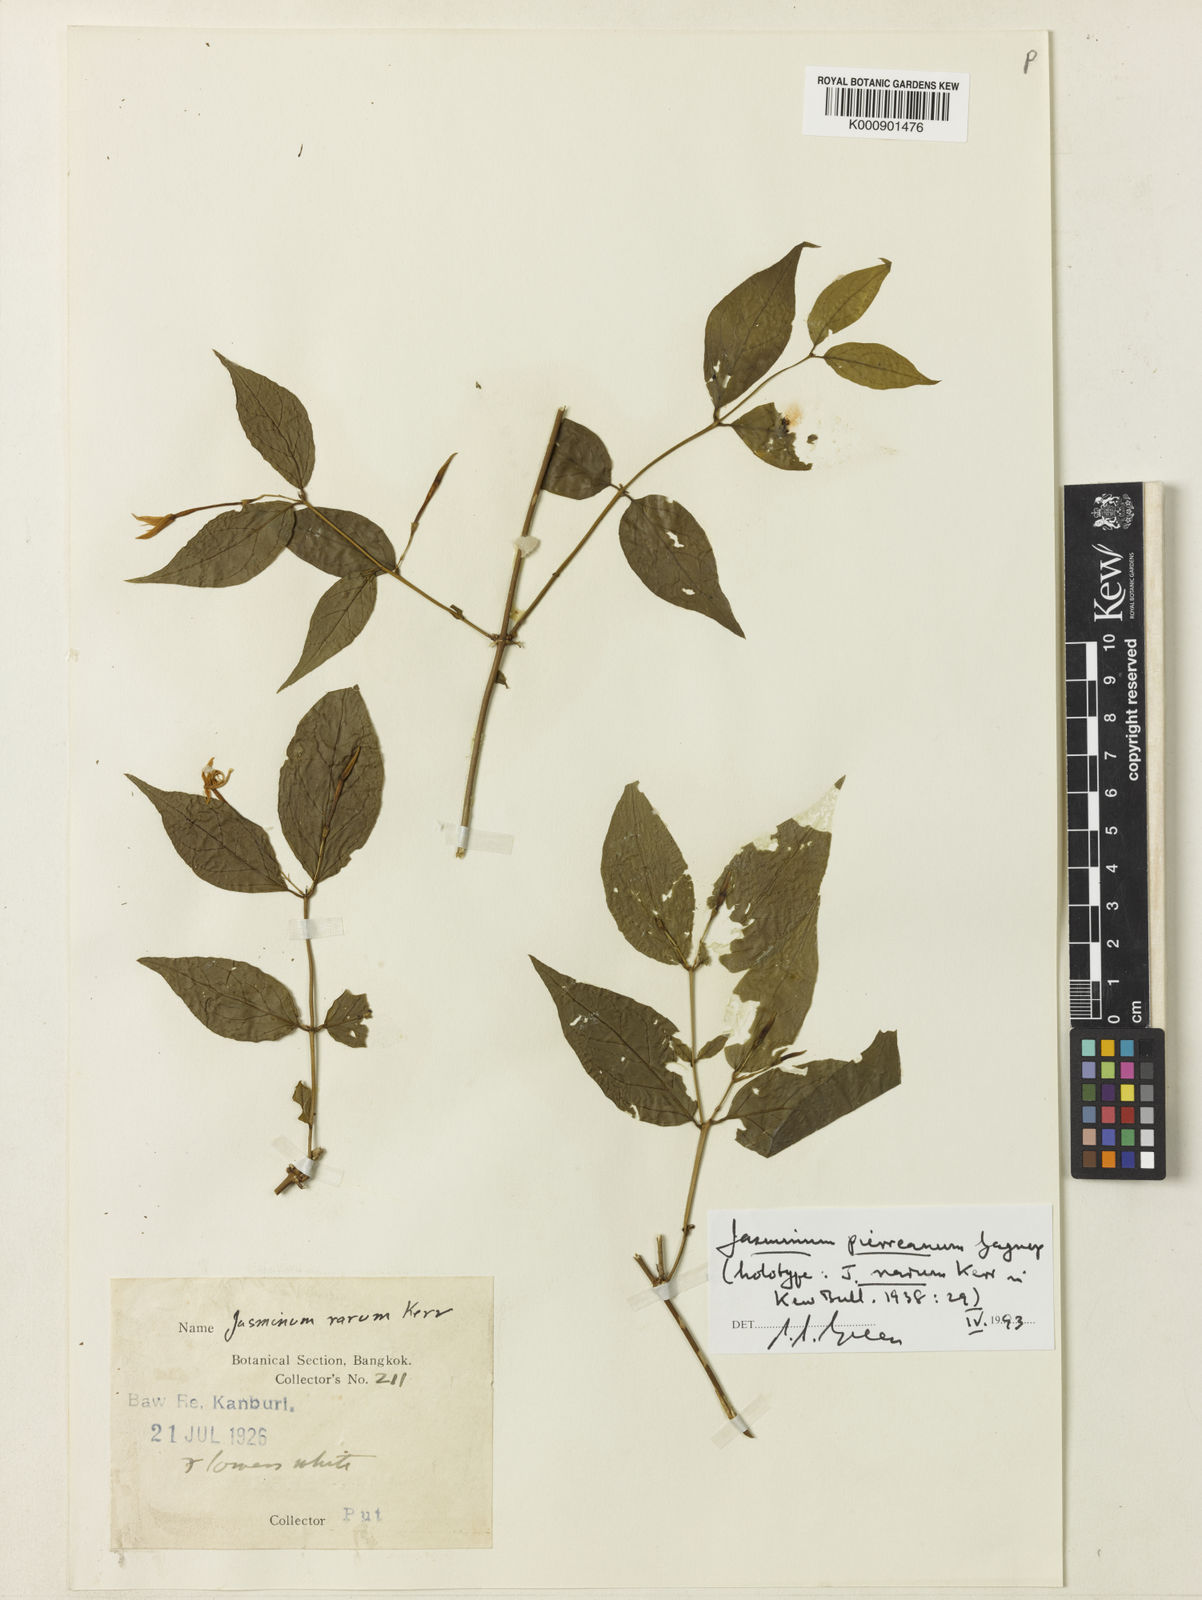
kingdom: Plantae
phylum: Tracheophyta
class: Magnoliopsida
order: Lamiales
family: Oleaceae
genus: Jasminum
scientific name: Jasminum pierreanum
